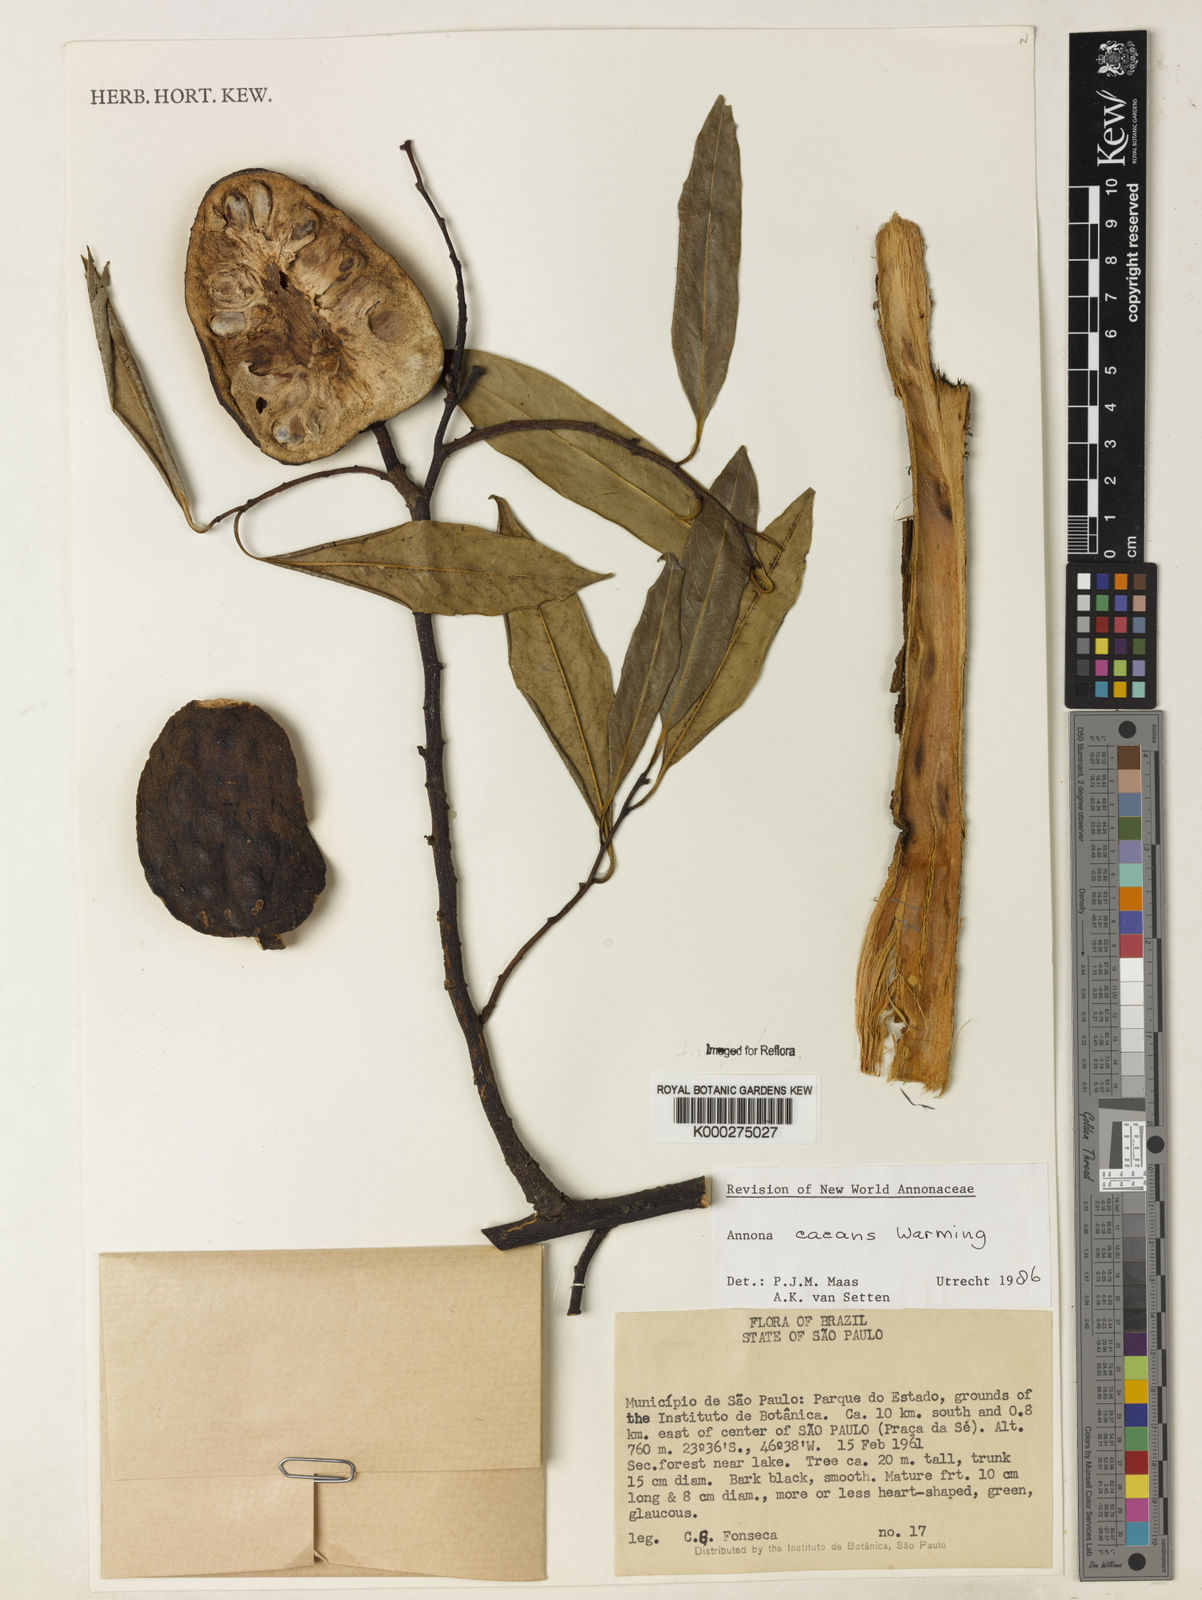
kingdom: Plantae
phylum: Tracheophyta
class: Magnoliopsida
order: Magnoliales
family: Annonaceae
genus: Annona
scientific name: Annona cacans
